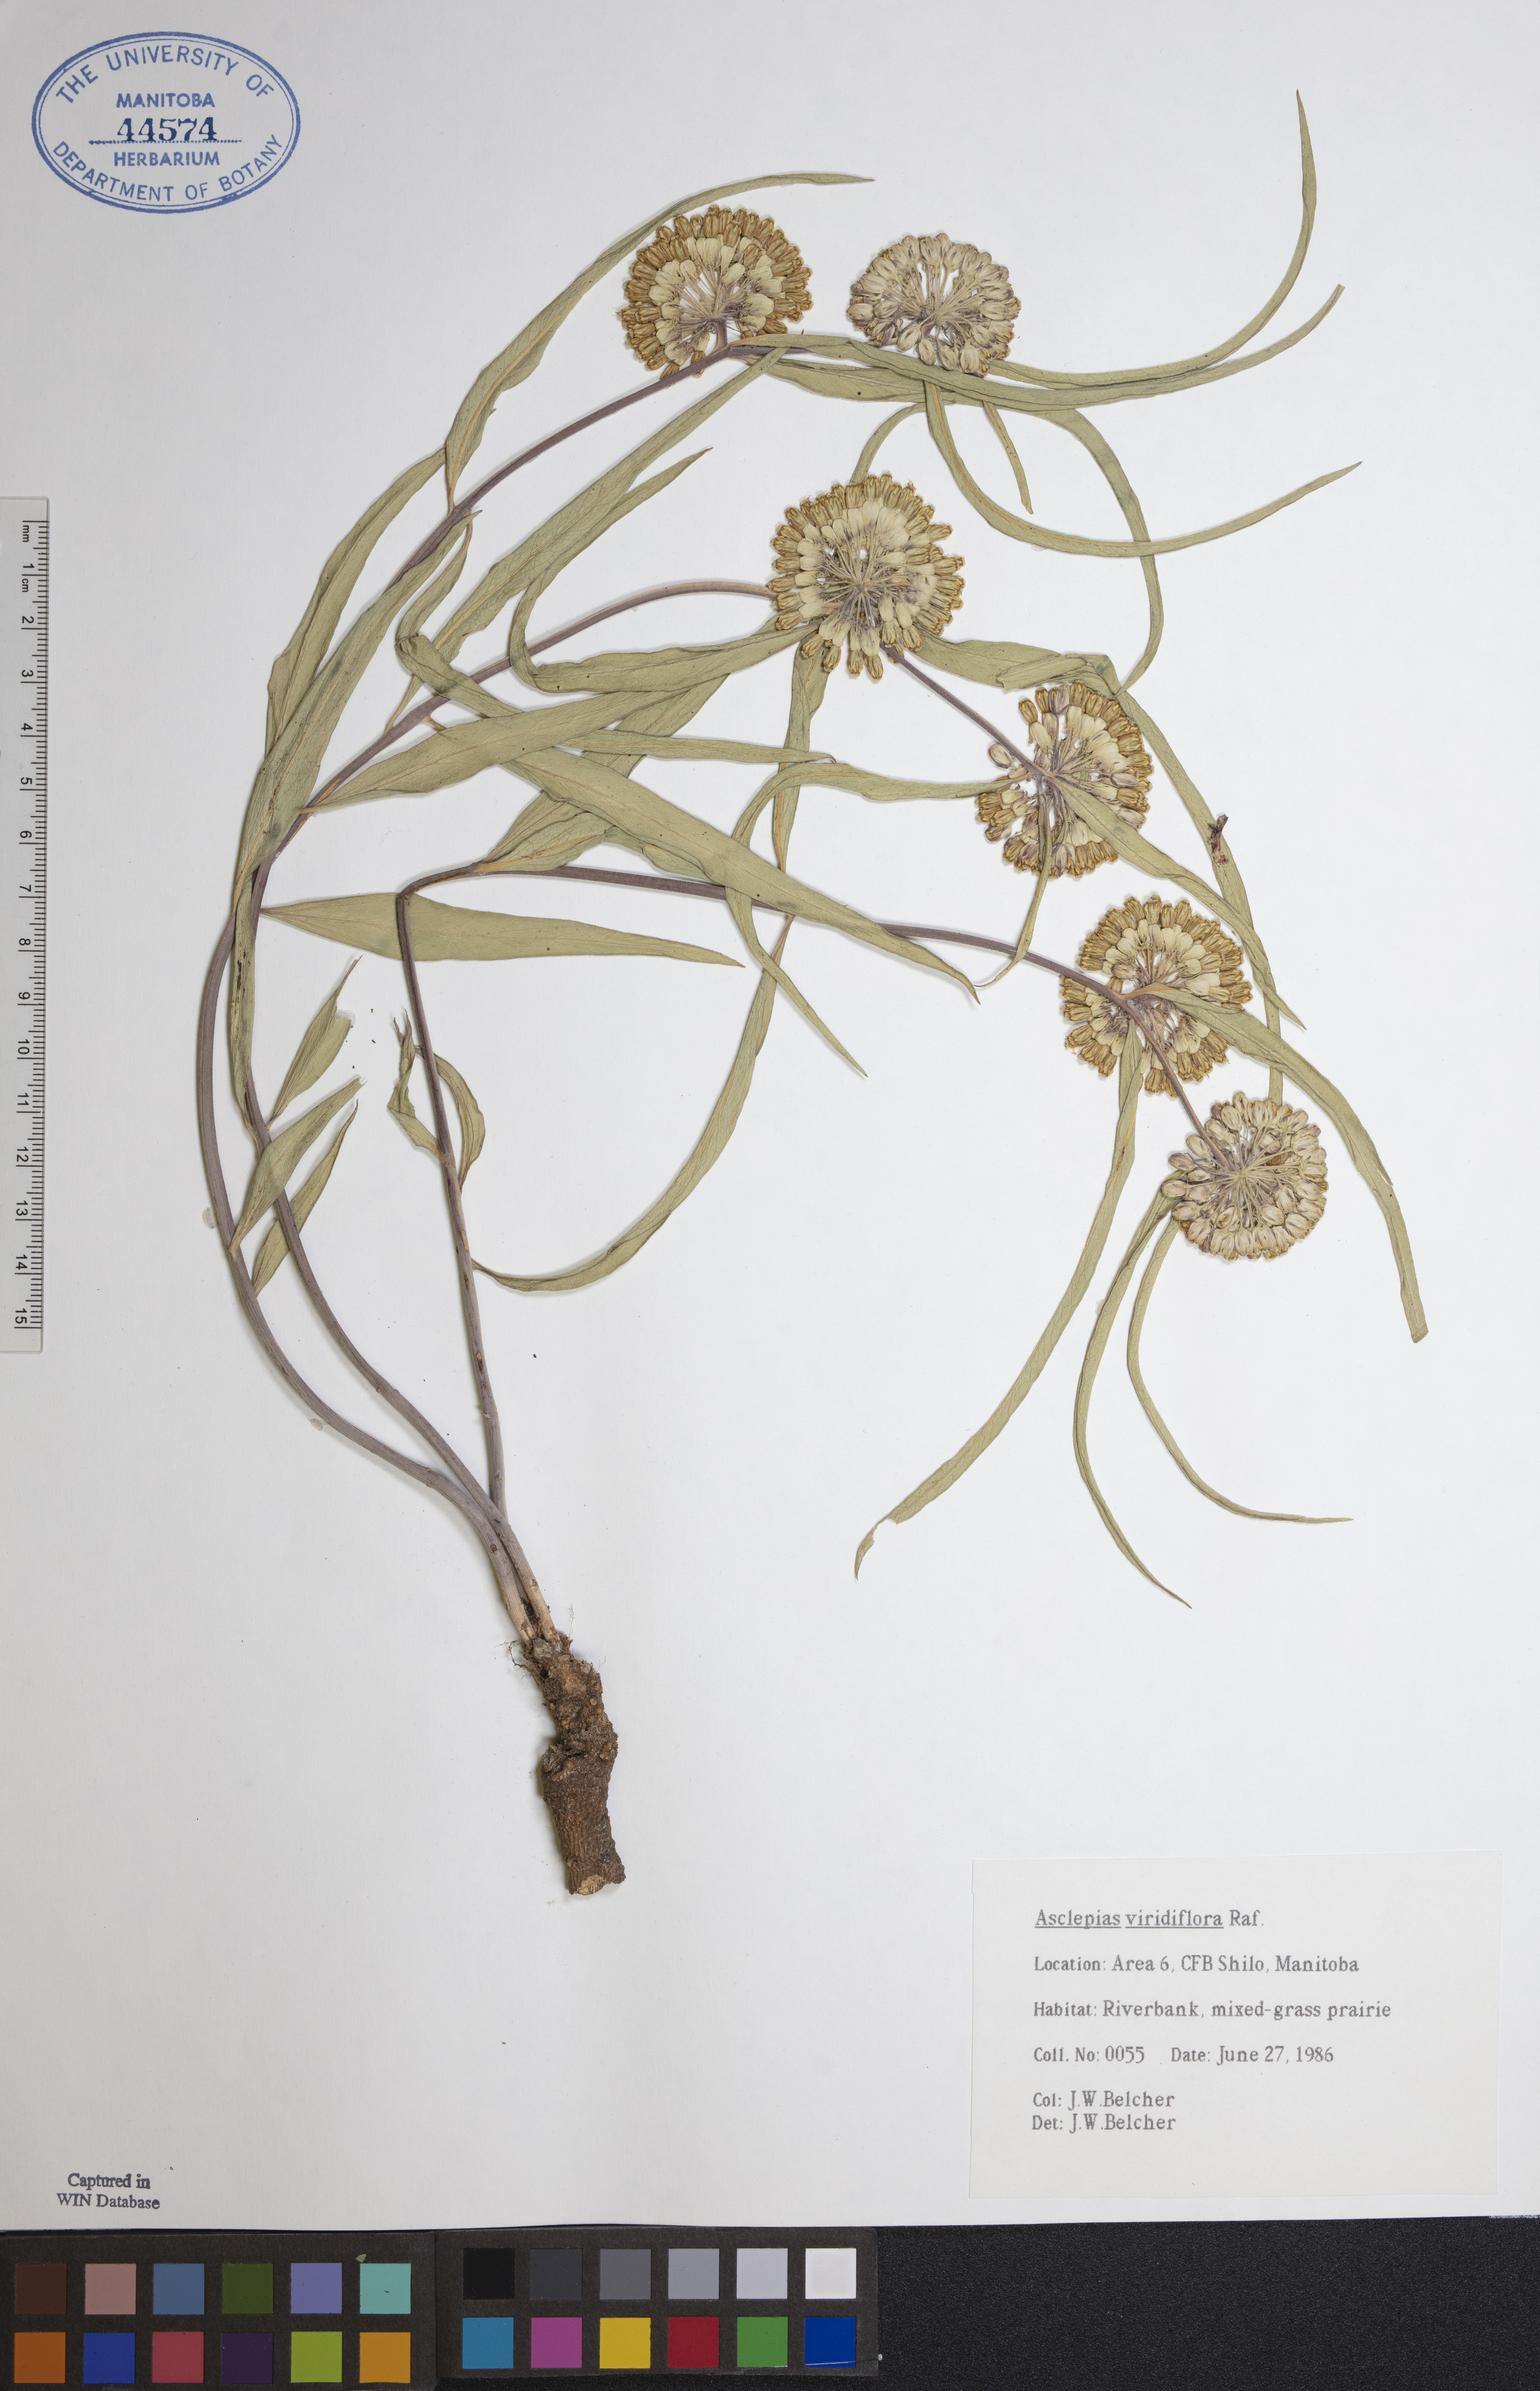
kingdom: Plantae
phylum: Tracheophyta
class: Magnoliopsida
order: Gentianales
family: Apocynaceae
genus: Asclepias
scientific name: Asclepias viridiflora
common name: Green comet milkweed
